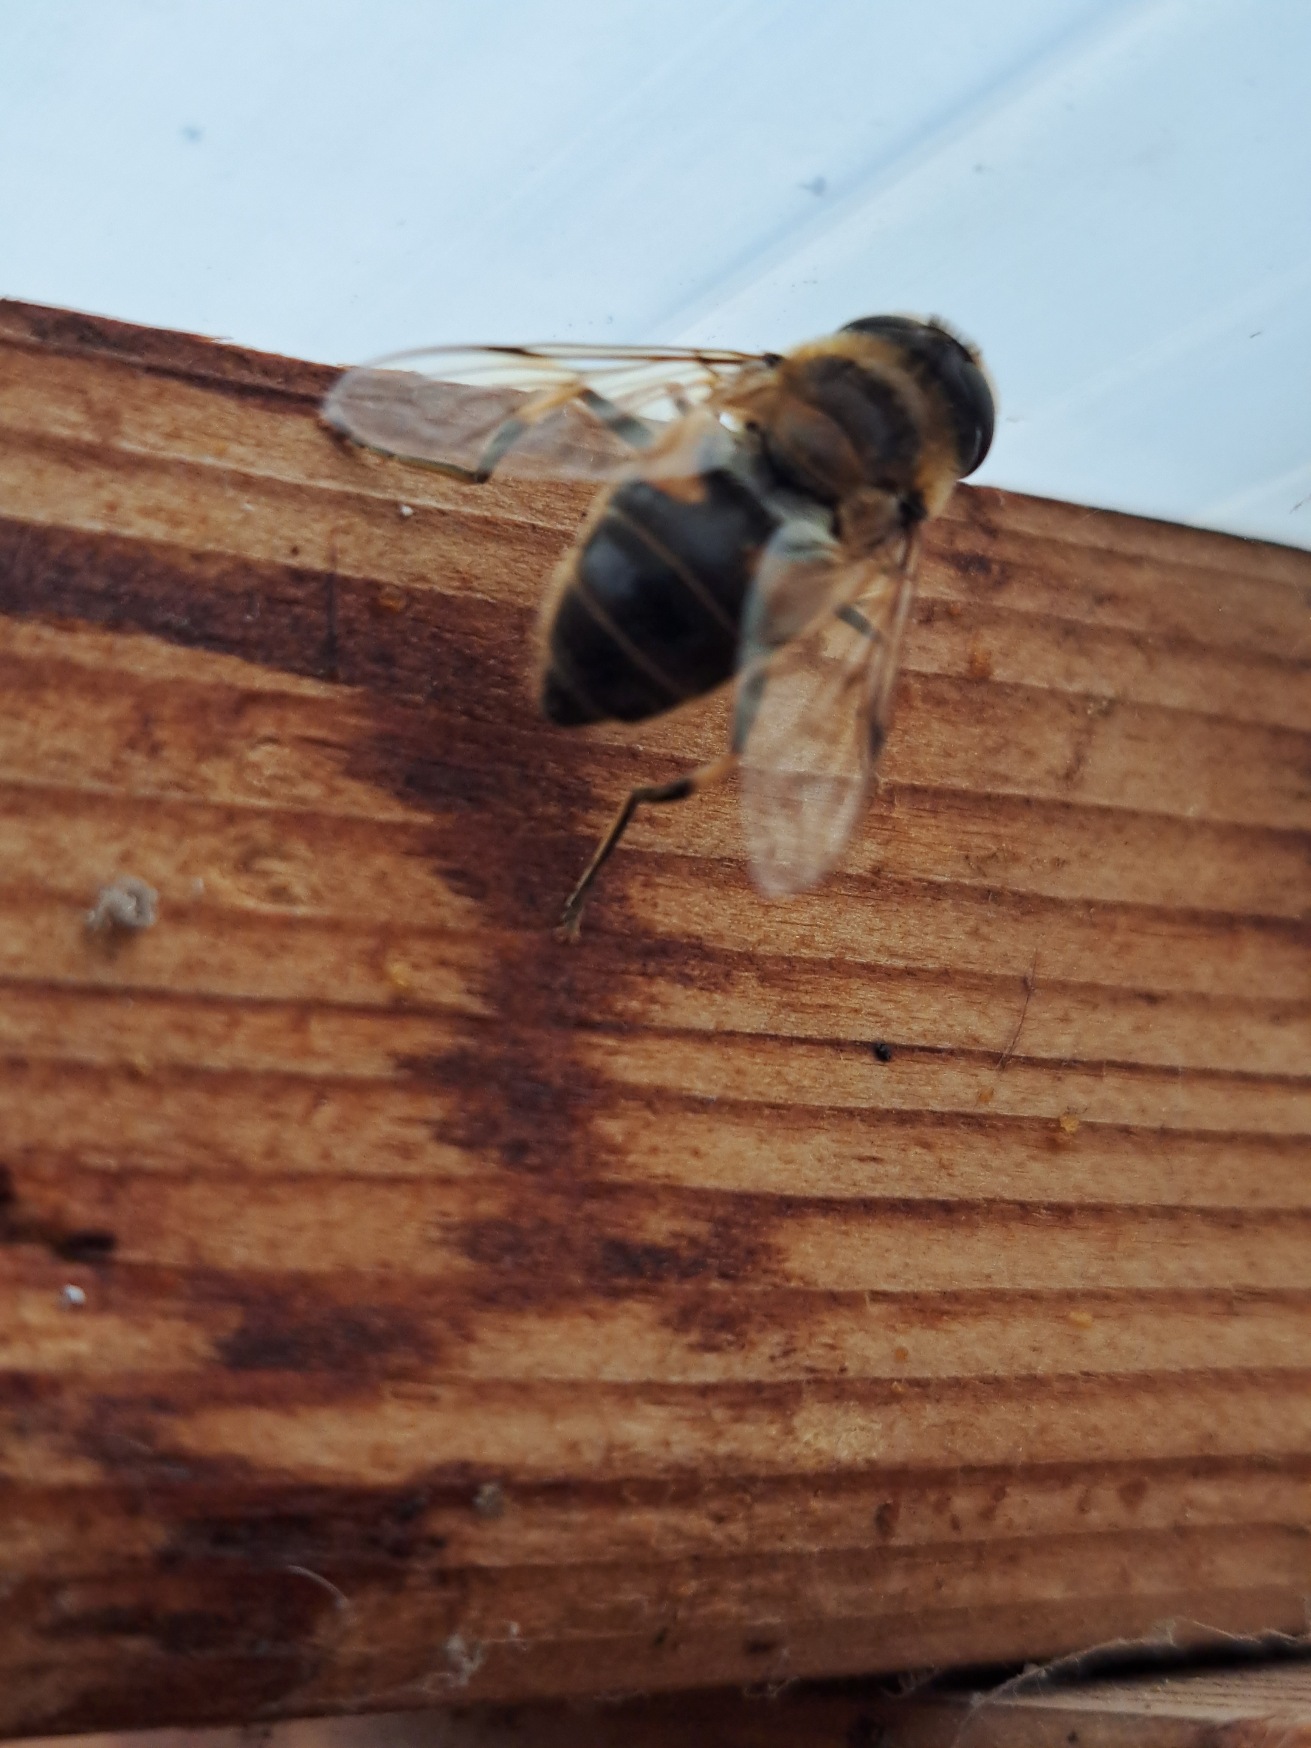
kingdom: Animalia
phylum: Arthropoda
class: Insecta
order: Diptera
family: Syrphidae
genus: Eristalis
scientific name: Eristalis pertinax
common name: Gulfodet dyndflue
